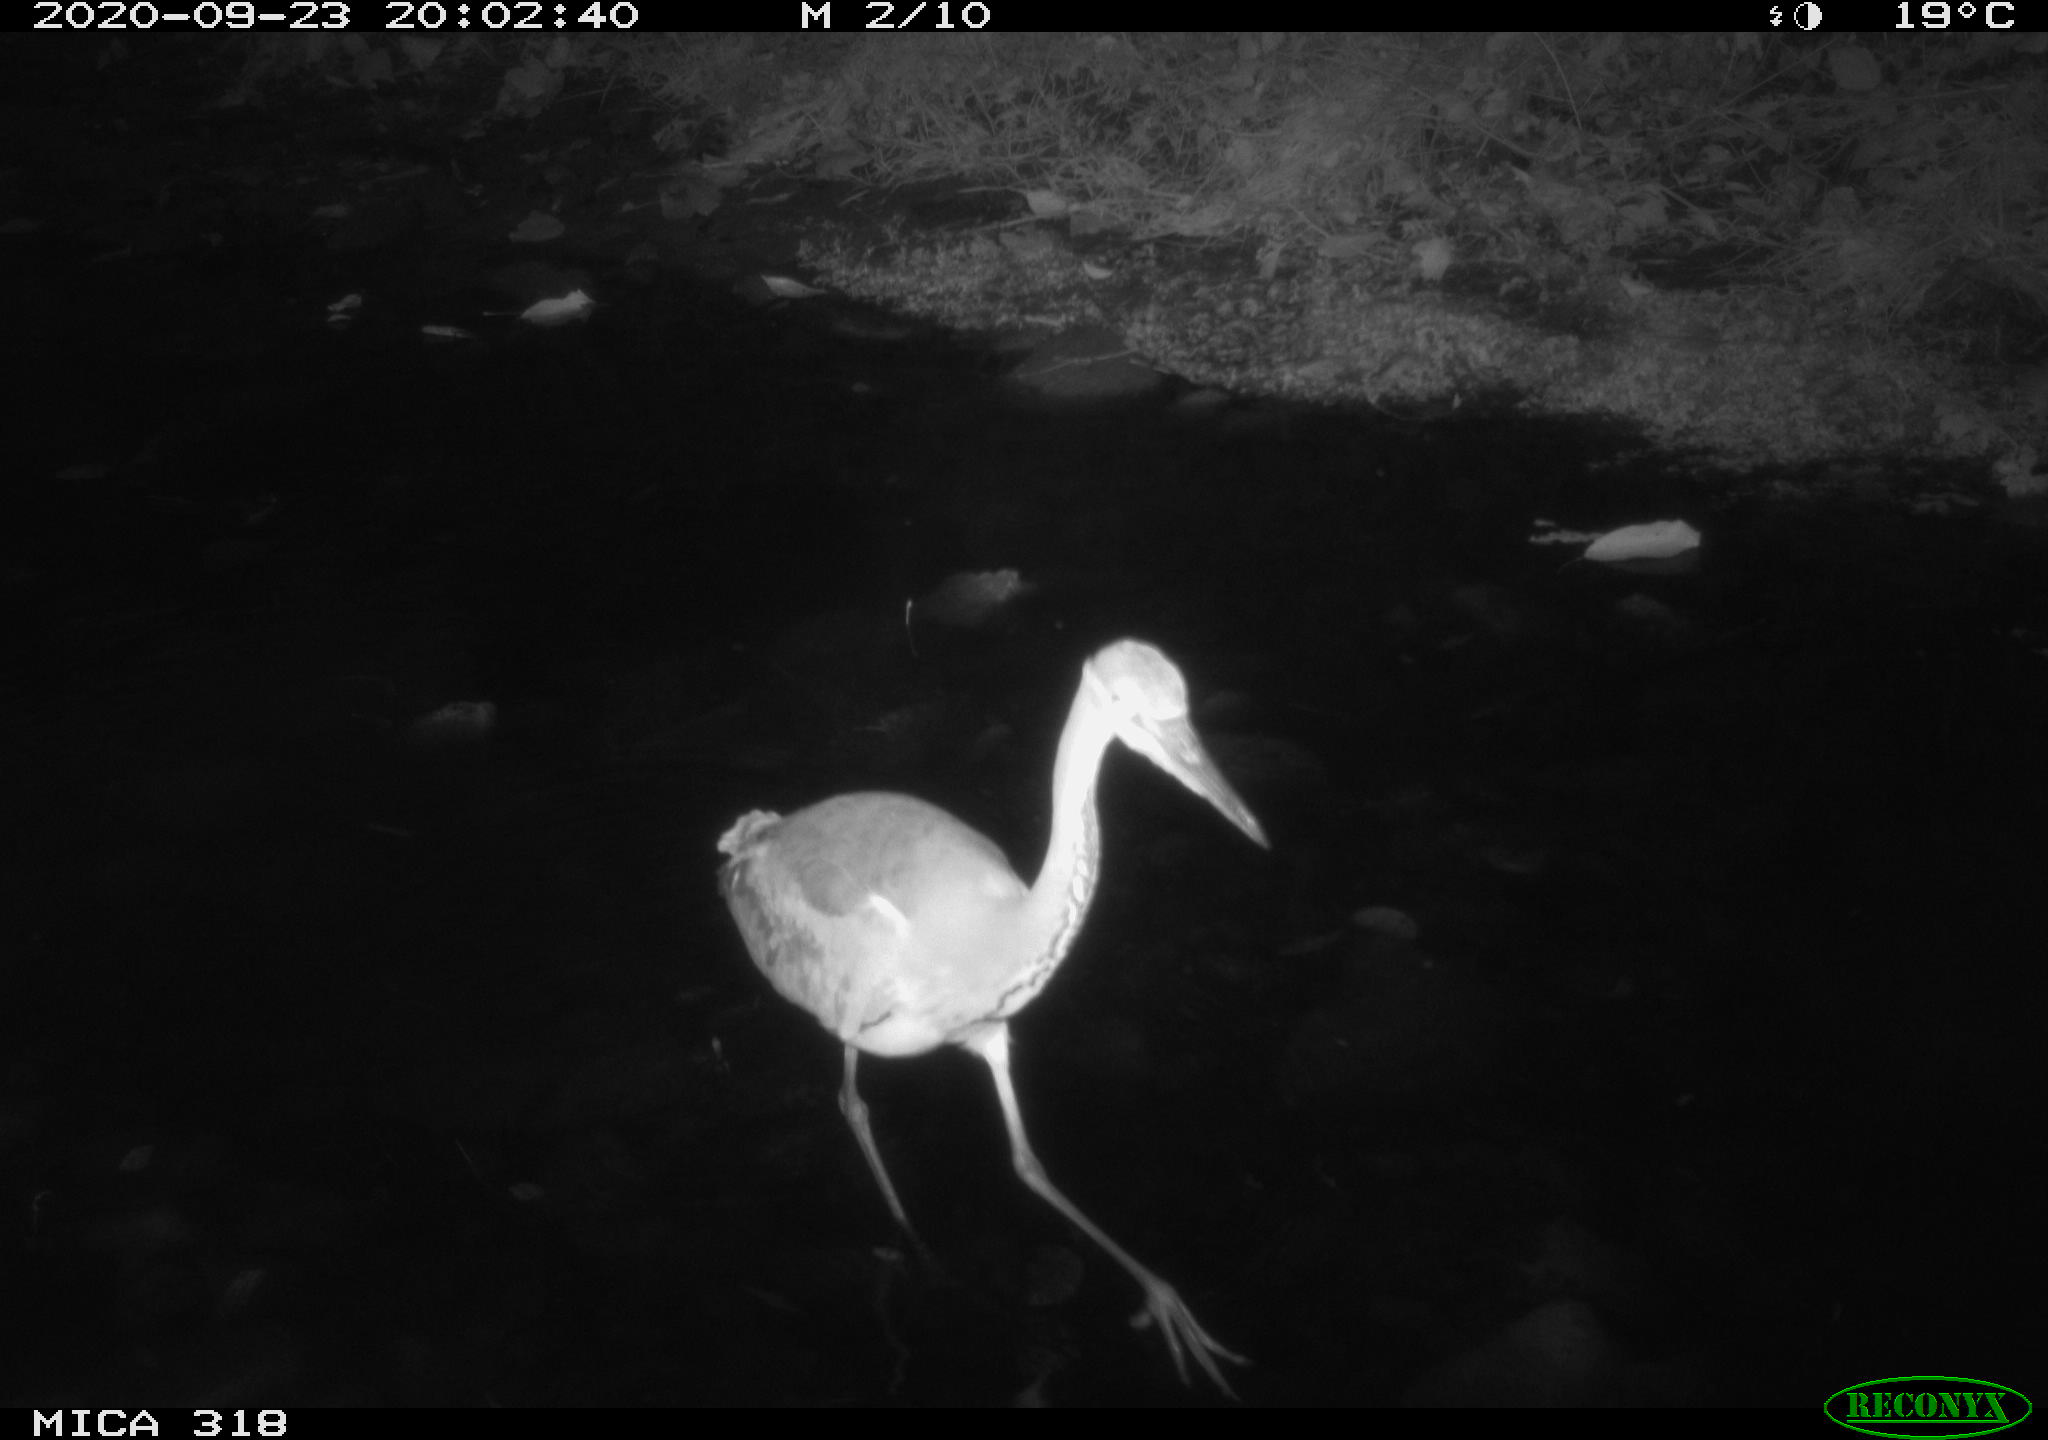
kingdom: Animalia
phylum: Chordata
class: Aves
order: Pelecaniformes
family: Ardeidae
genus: Ardea
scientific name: Ardea cinerea
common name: Grey heron
